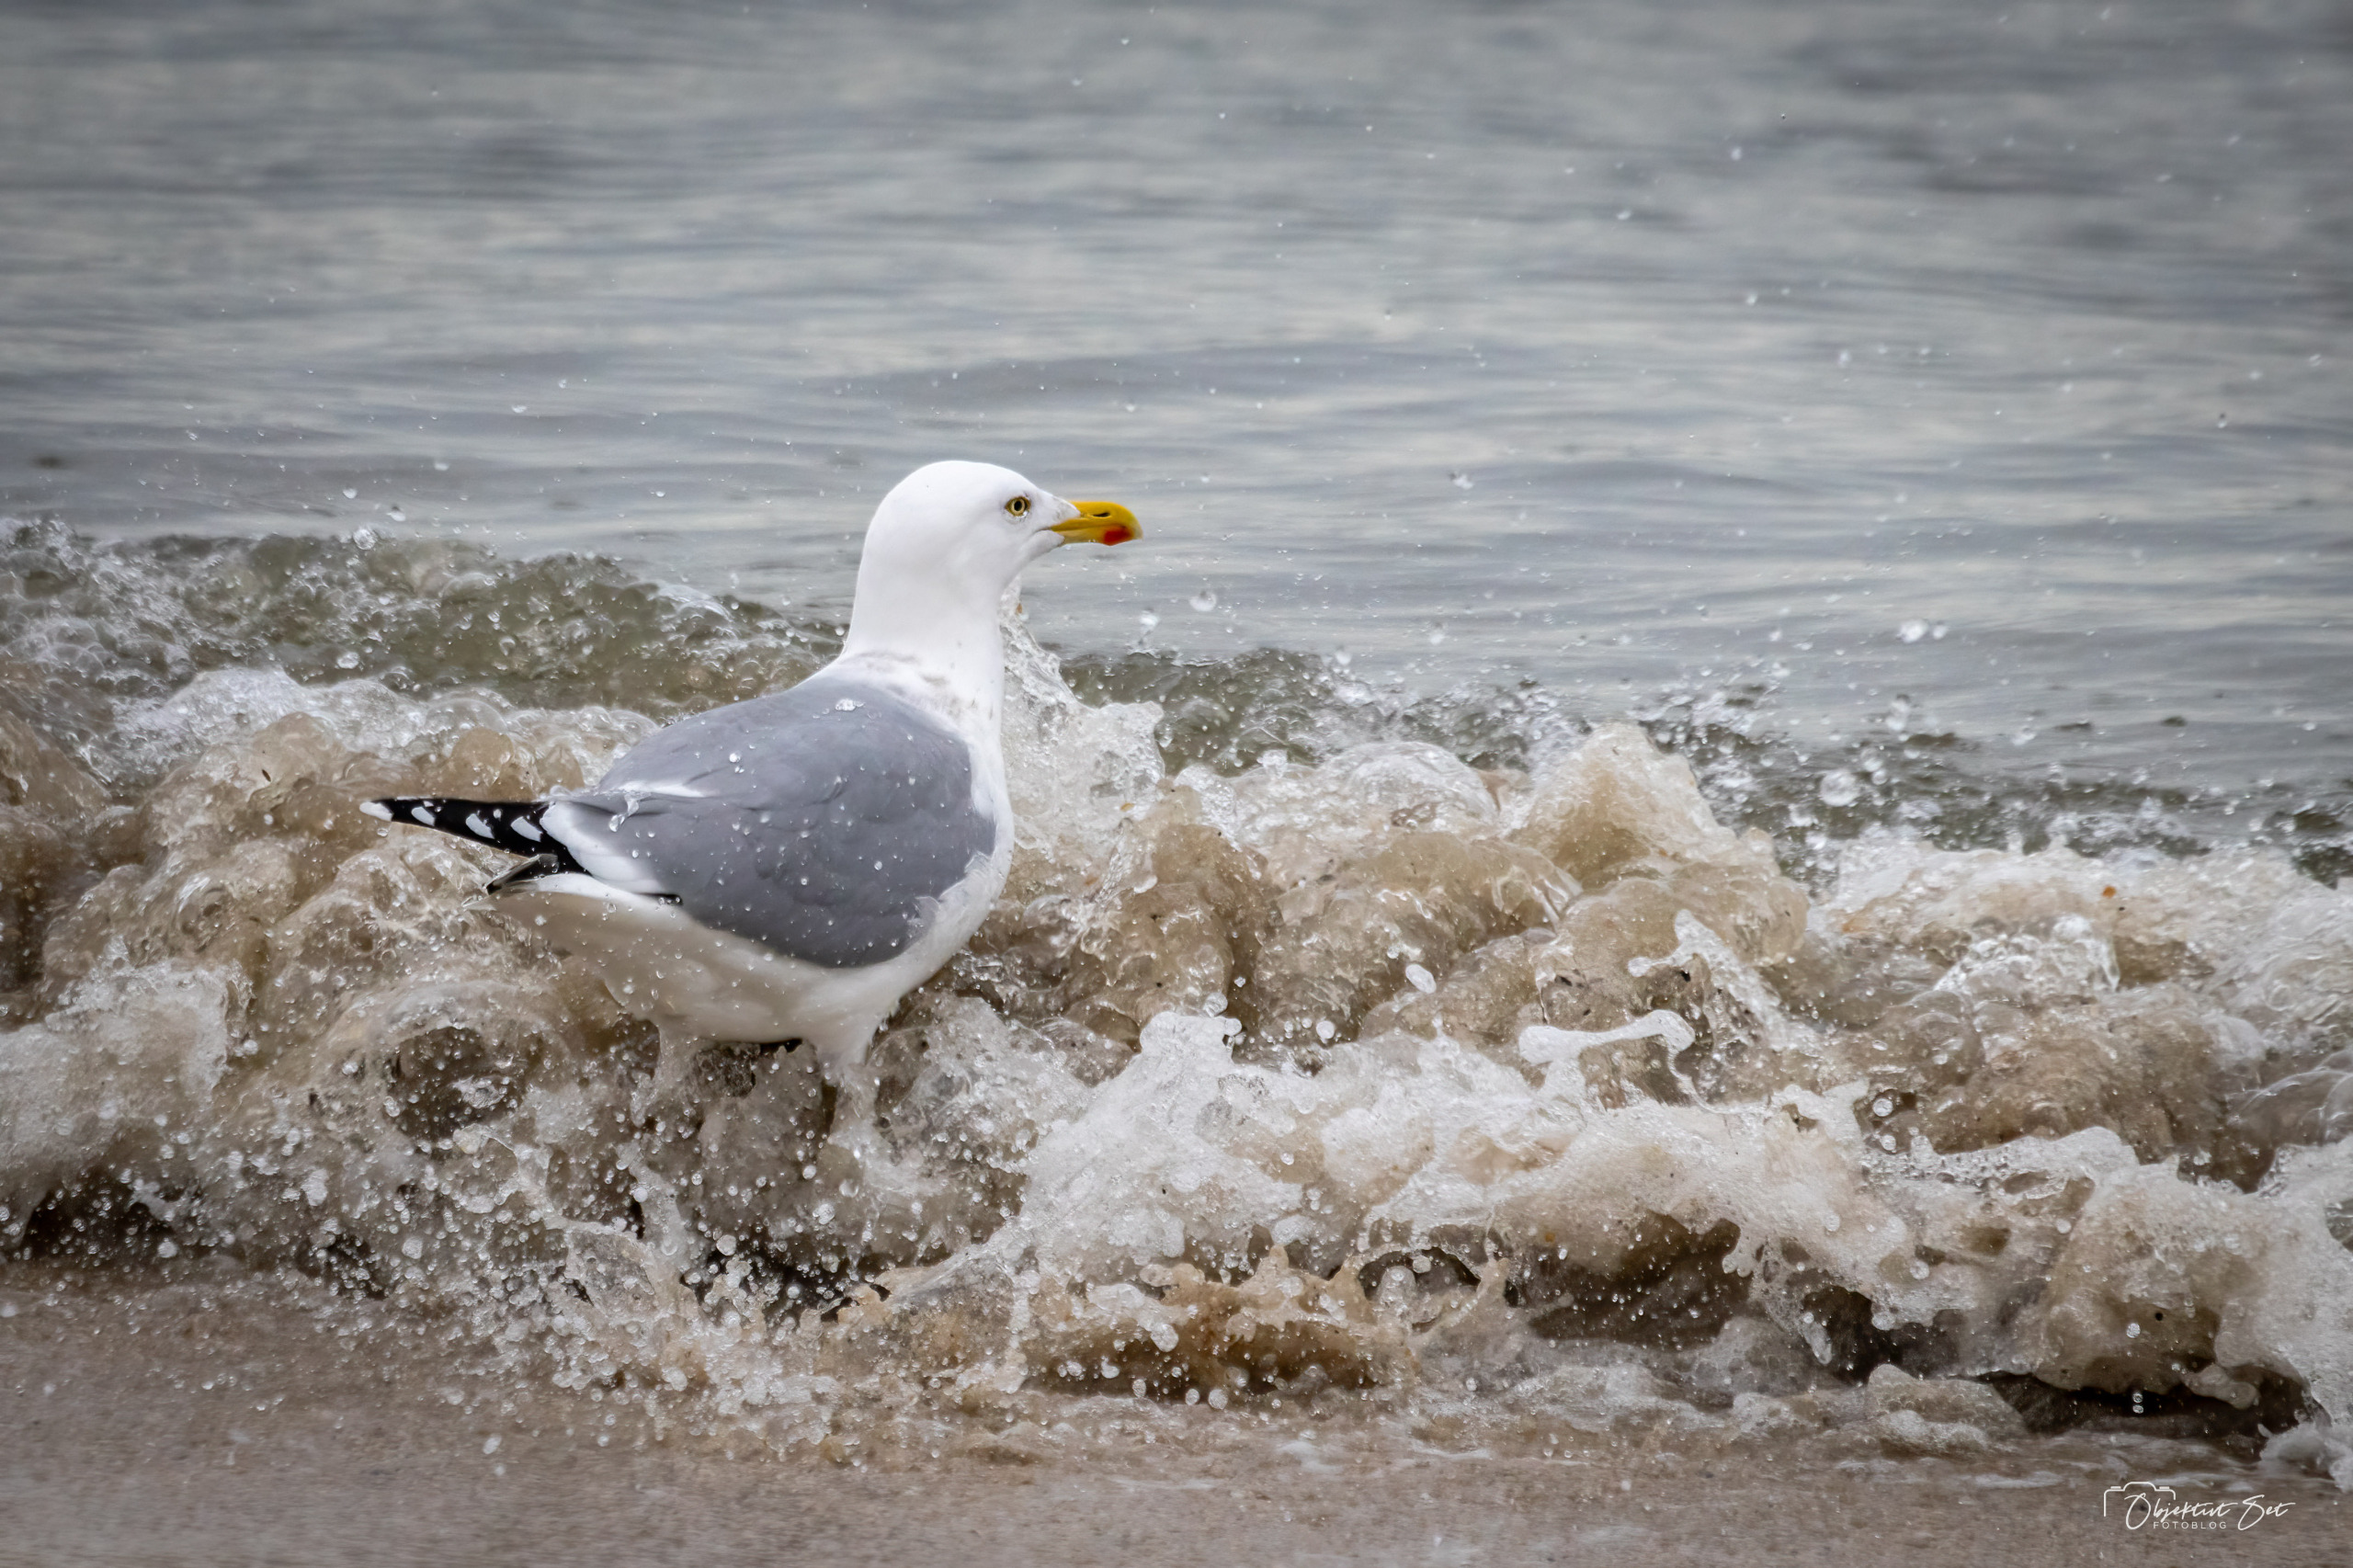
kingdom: Animalia
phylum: Chordata
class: Aves
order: Charadriiformes
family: Laridae
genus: Larus
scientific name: Larus argentatus
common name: Sølvmåge
